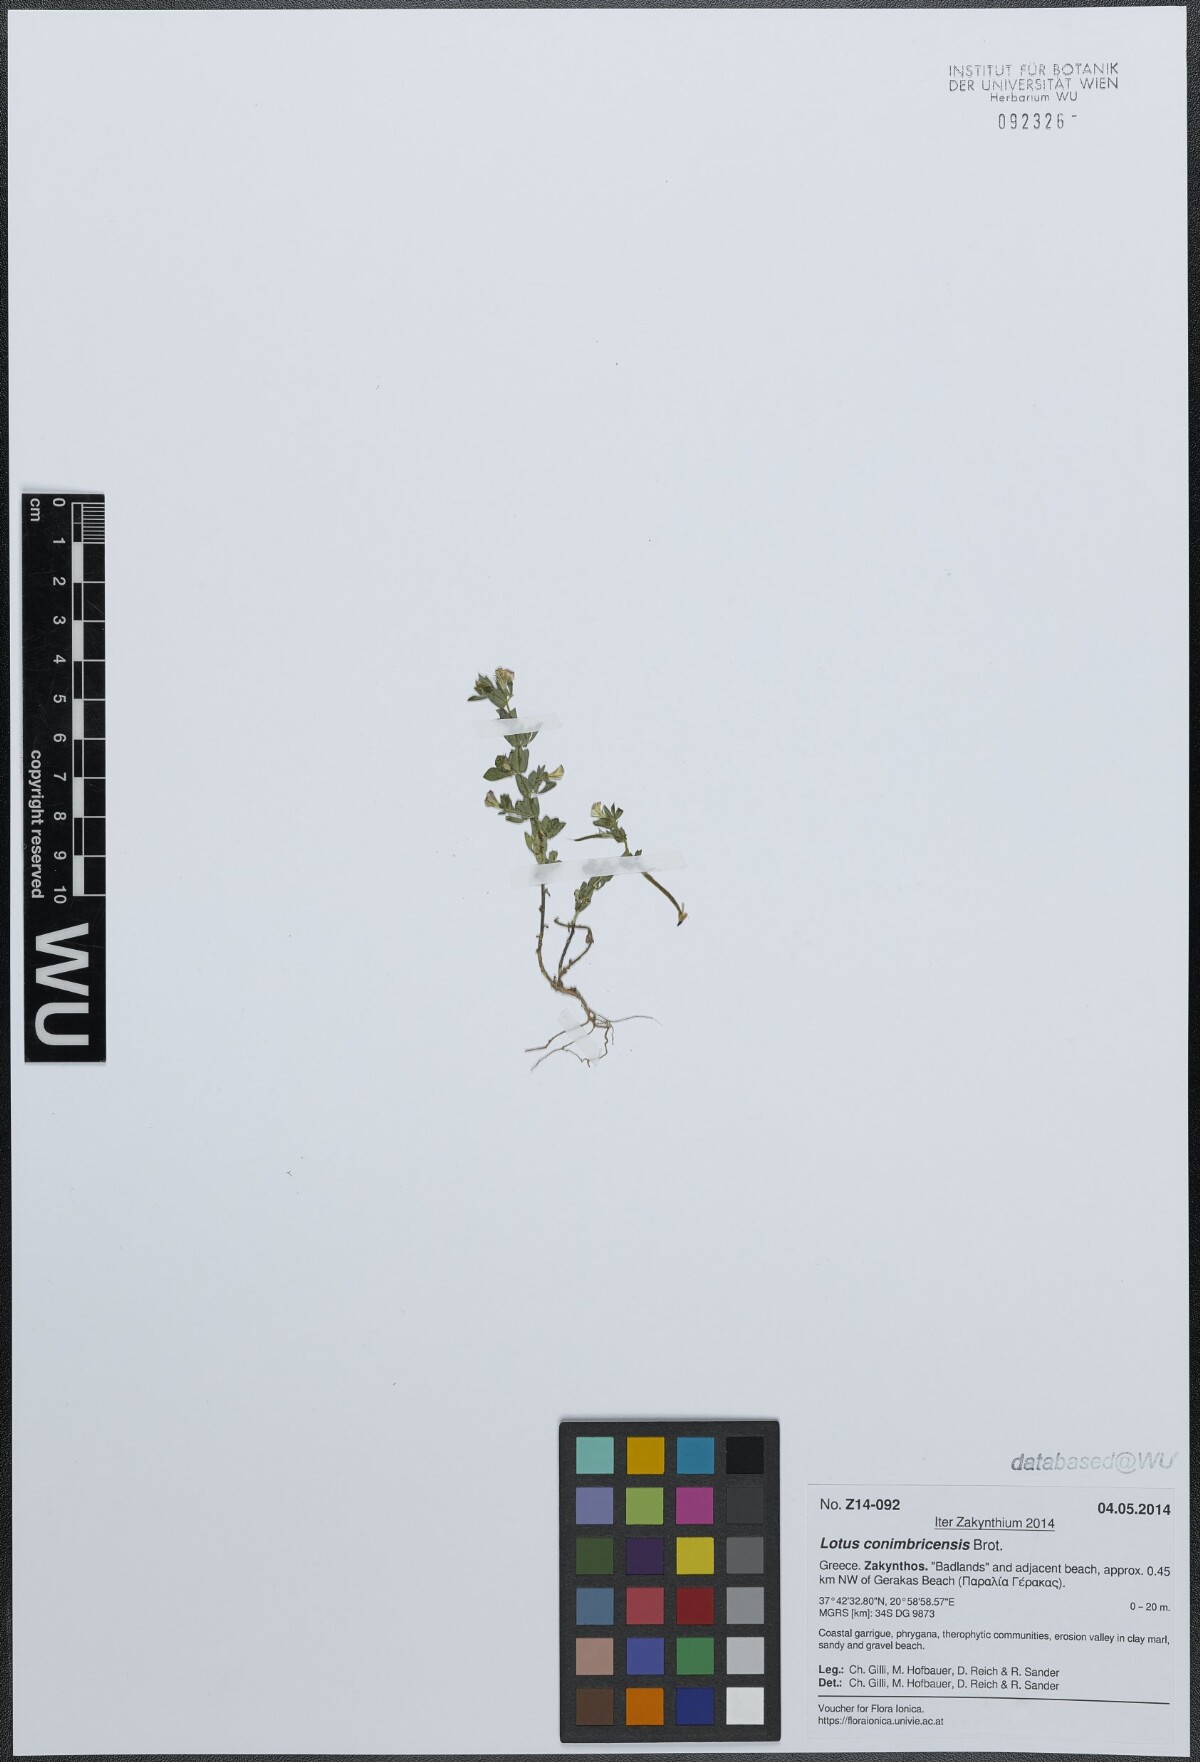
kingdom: Plantae
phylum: Tracheophyta
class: Magnoliopsida
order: Fabales
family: Fabaceae
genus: Lotus
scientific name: Lotus conimbricensis
